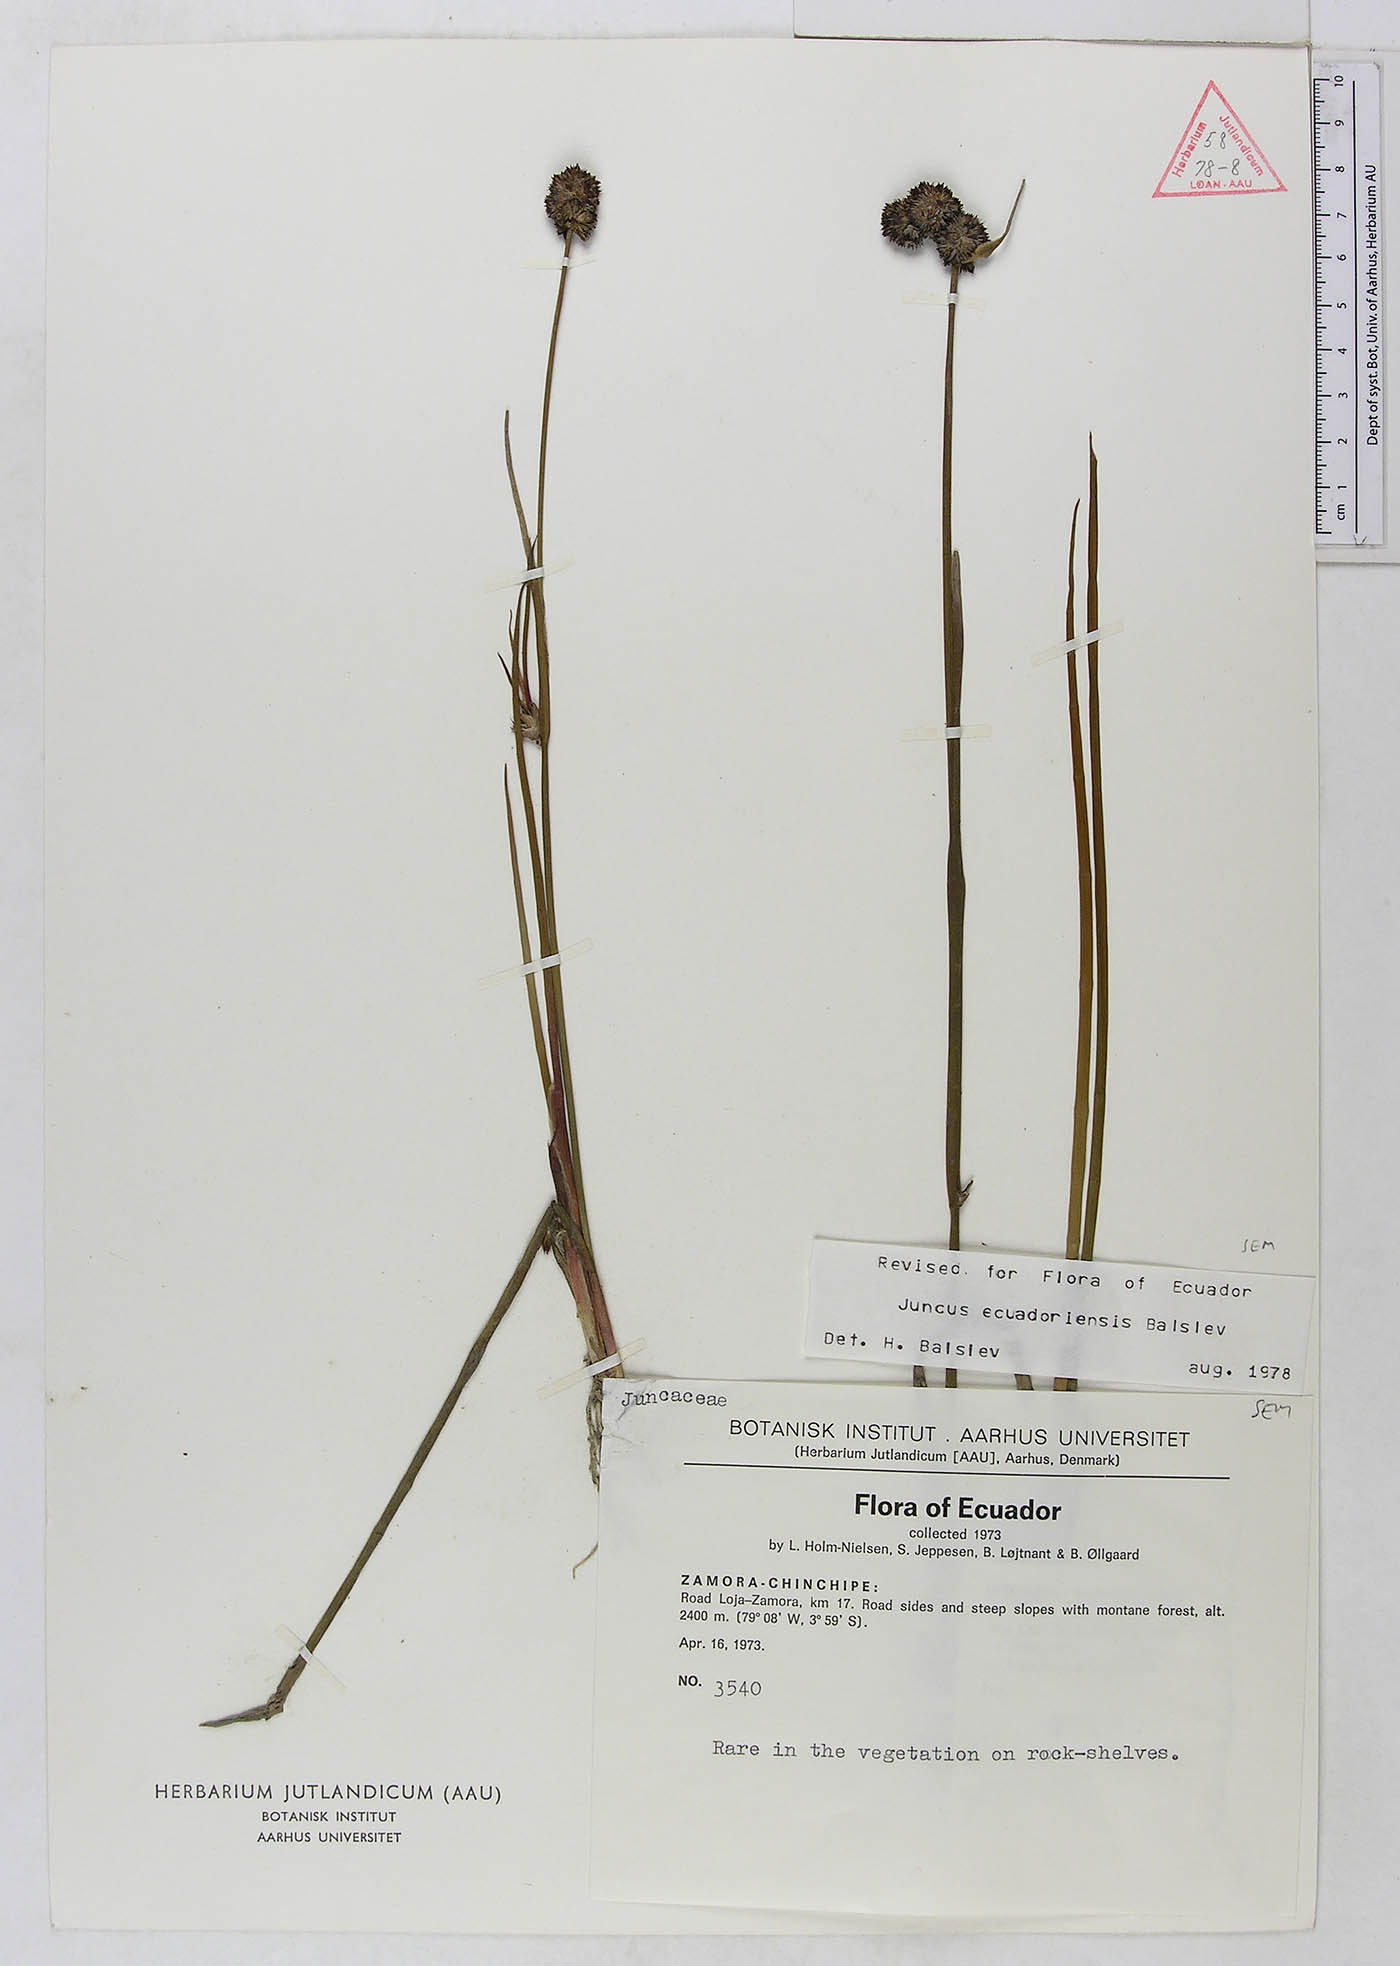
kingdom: Plantae
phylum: Tracheophyta
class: Liliopsida
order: Poales
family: Juncaceae
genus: Juncus
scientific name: Juncus ecuadoriensis
